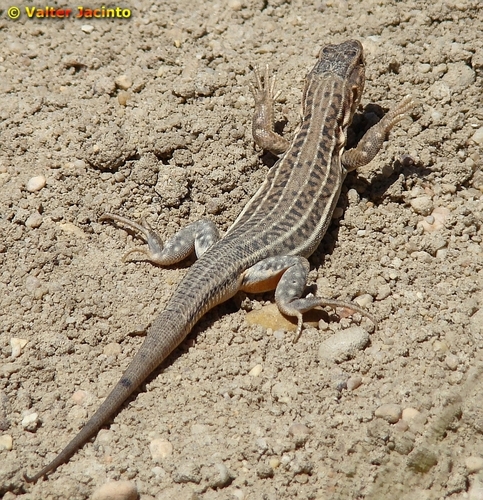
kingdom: Animalia
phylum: Chordata
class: Squamata
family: Lacertidae
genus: Acanthodactylus
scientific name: Acanthodactylus erythrurus
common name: Spiny-footed lizard
